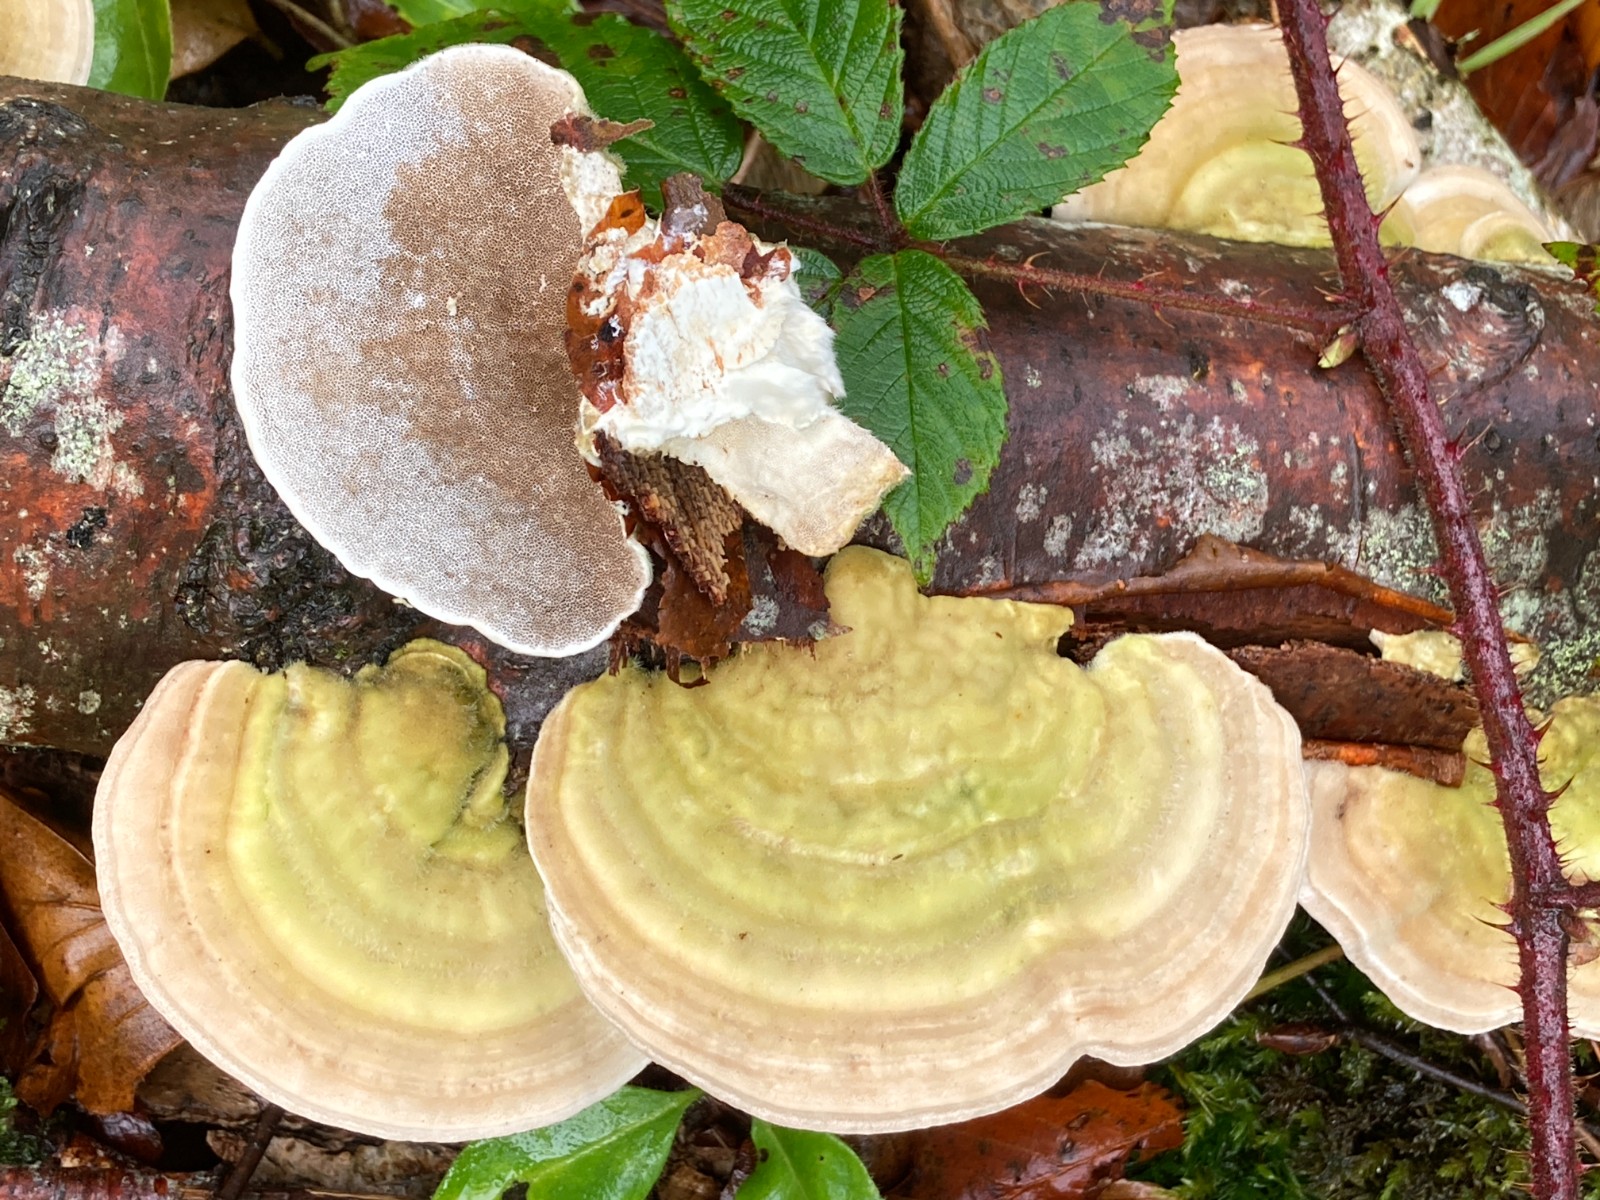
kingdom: Fungi
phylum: Basidiomycota
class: Agaricomycetes
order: Polyporales
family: Polyporaceae
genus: Trametes
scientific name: Trametes hirsuta
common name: håret læderporesvamp
